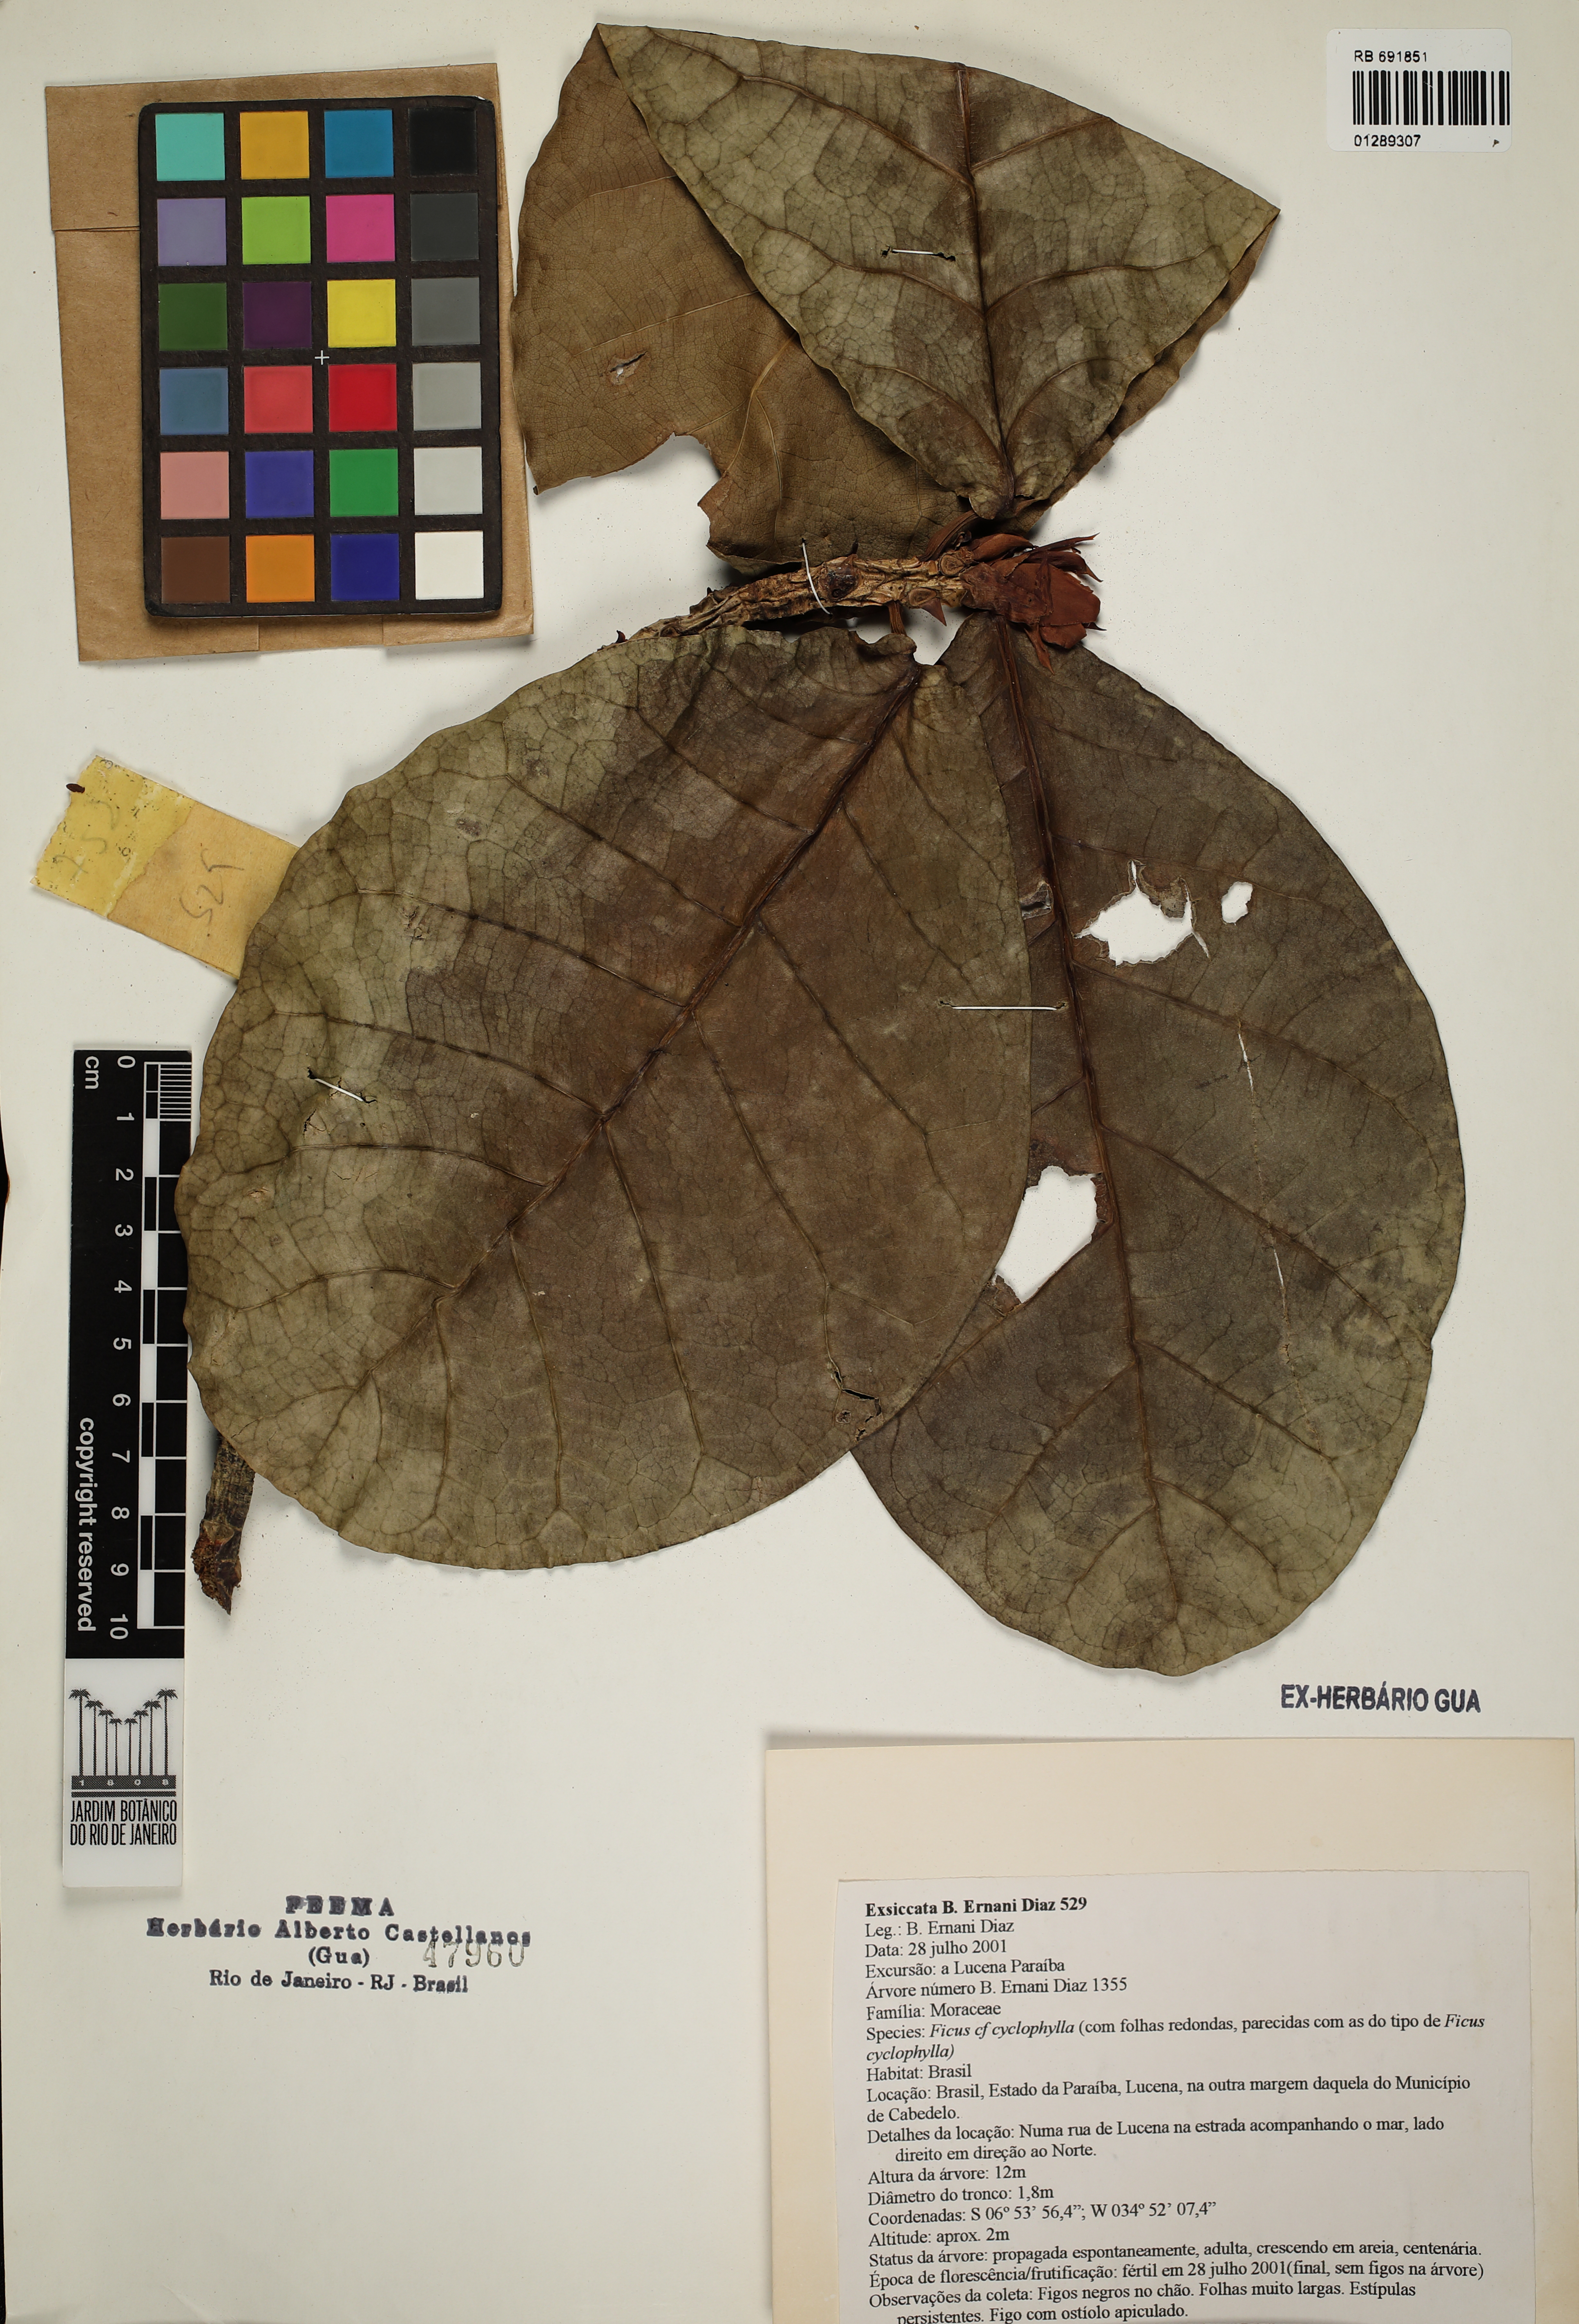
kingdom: Plantae
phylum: Tracheophyta
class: Magnoliopsida
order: Rosales
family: Moraceae
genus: Ficus
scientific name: Ficus cyclophylla
